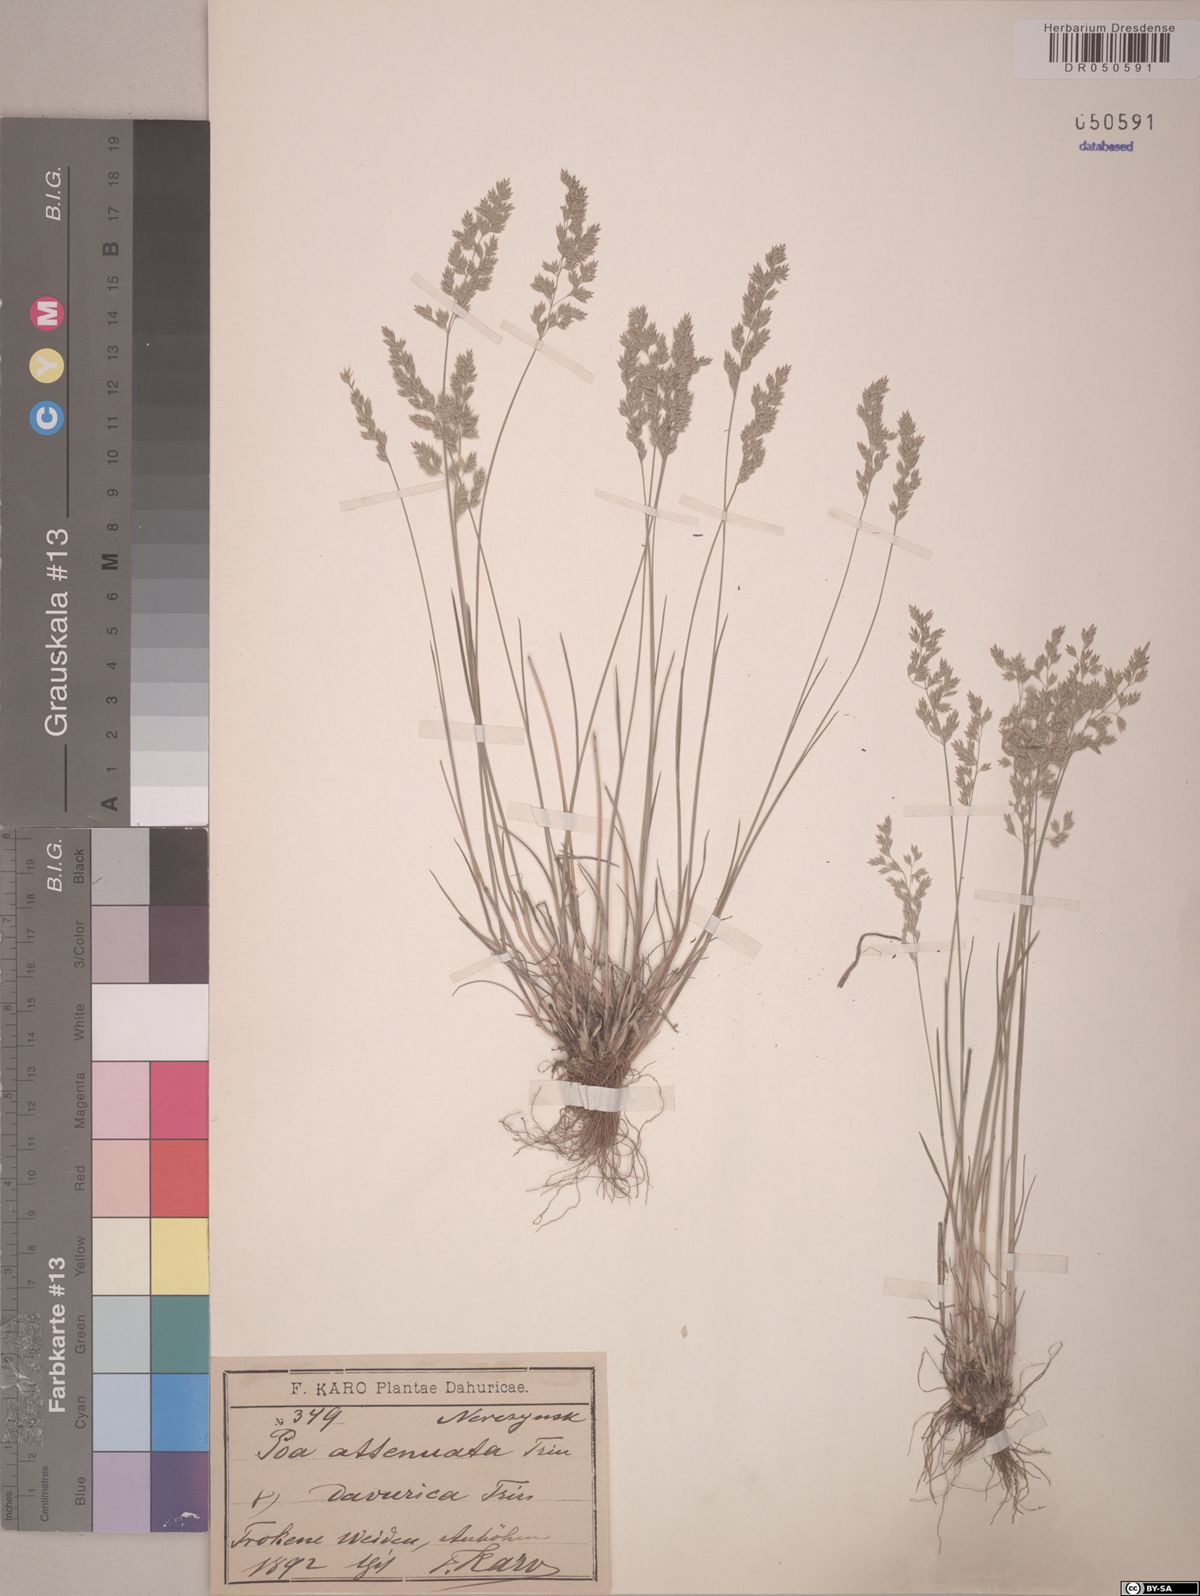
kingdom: Plantae
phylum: Tracheophyta
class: Liliopsida
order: Poales
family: Poaceae
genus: Poa
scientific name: Poa attenuata
